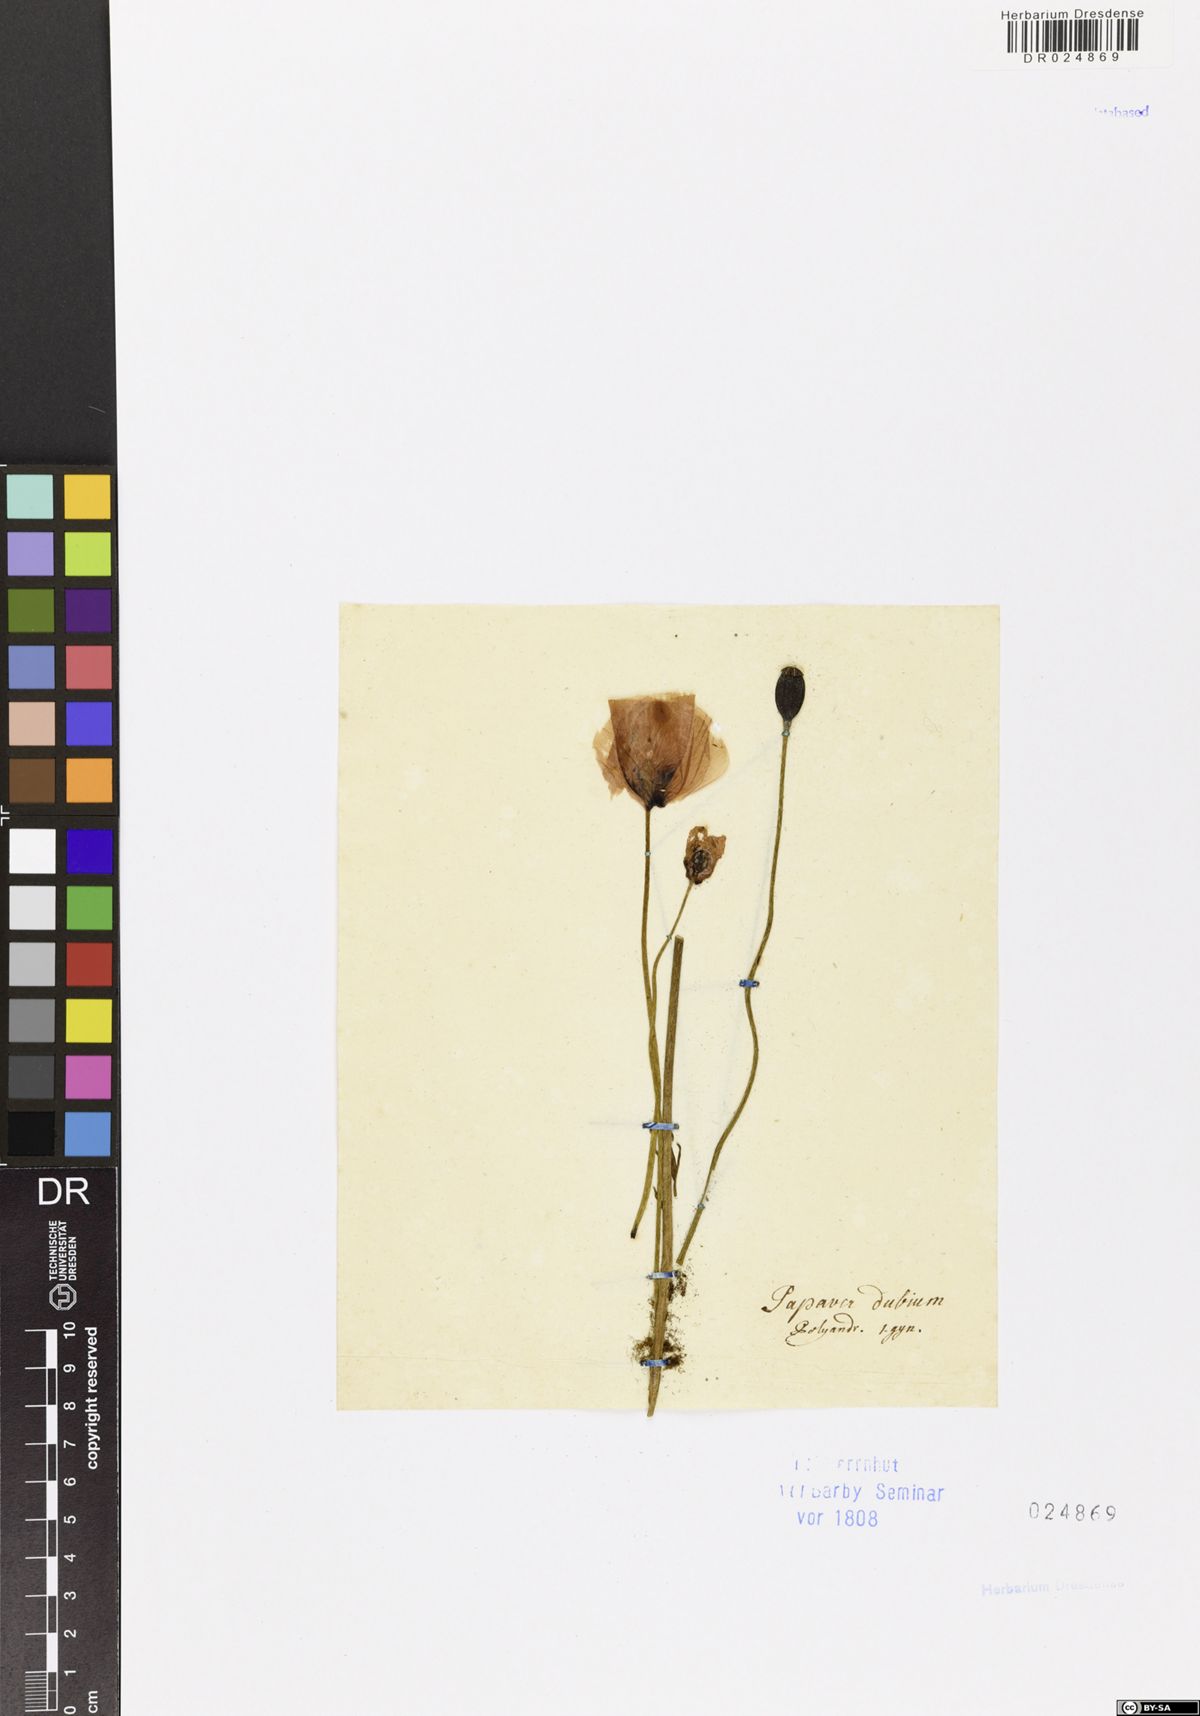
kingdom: Plantae
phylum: Tracheophyta
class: Magnoliopsida
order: Ranunculales
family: Papaveraceae
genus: Papaver
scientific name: Papaver dubium
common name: Long-headed poppy
